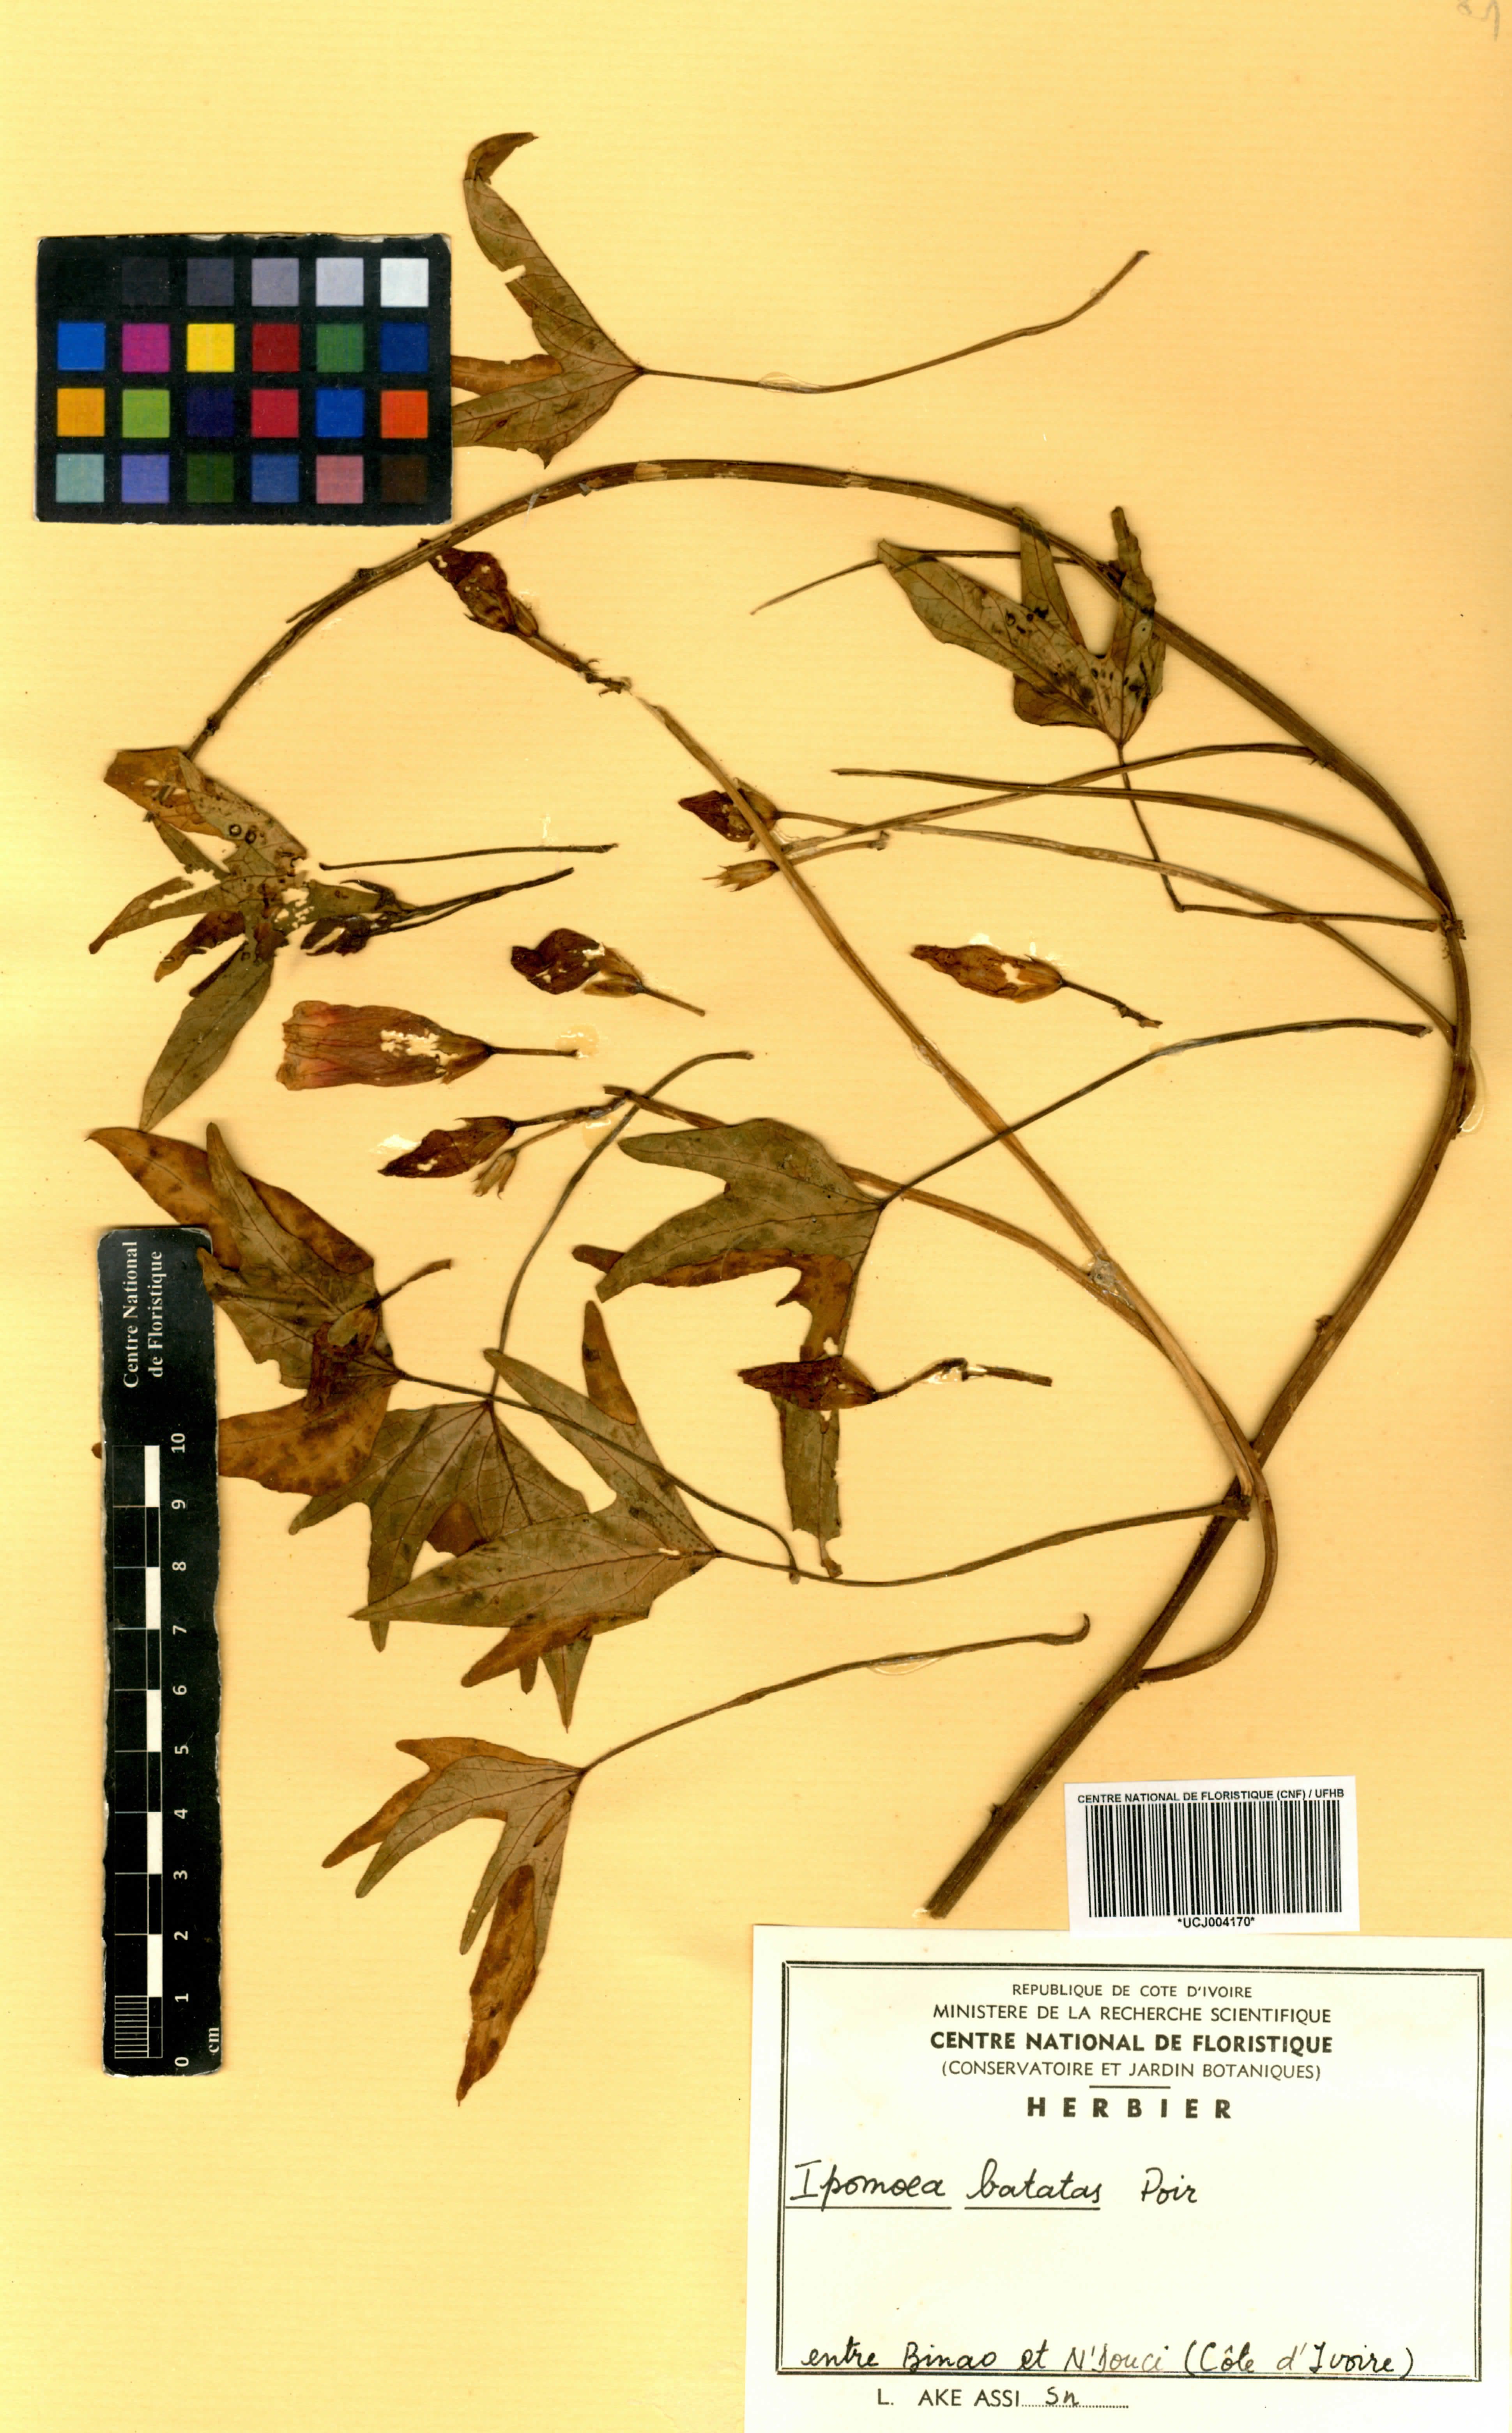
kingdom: Plantae
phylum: Tracheophyta
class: Magnoliopsida
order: Solanales
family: Convolvulaceae
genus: Ipomoea
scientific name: Ipomoea batatas
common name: Sweet-potato
